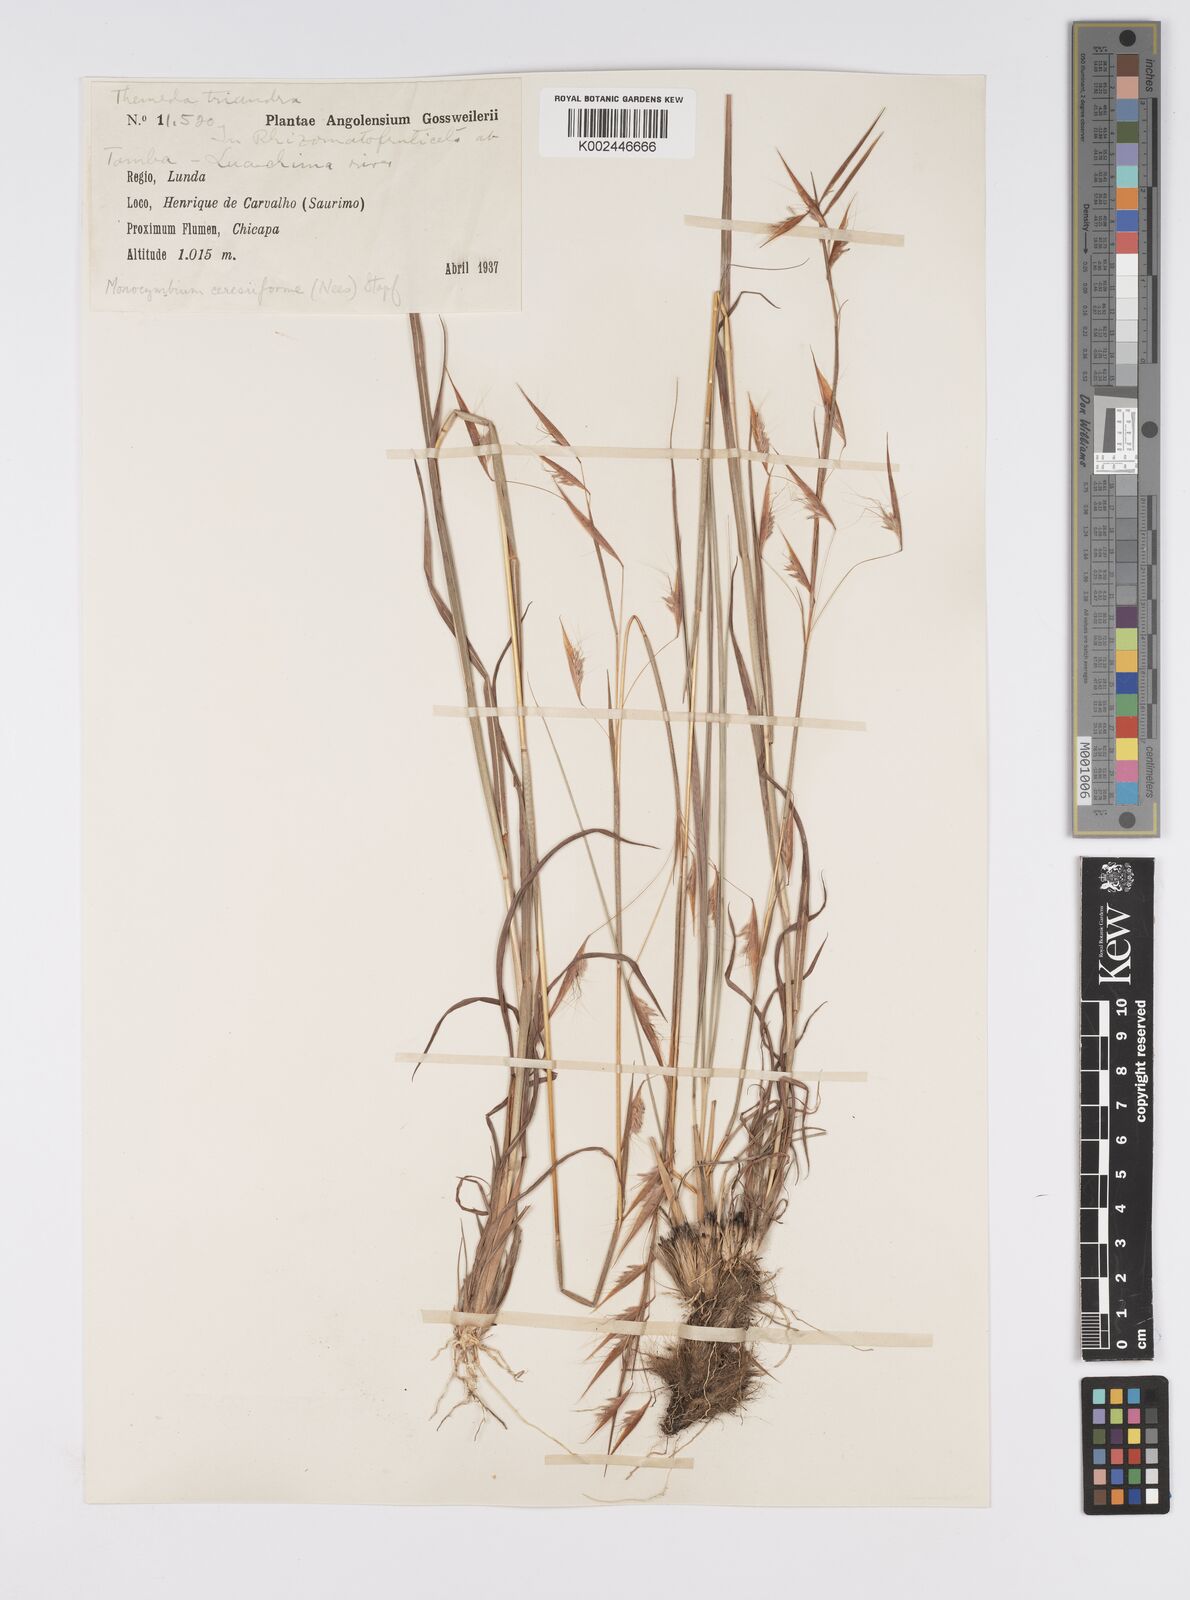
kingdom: Plantae
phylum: Tracheophyta
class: Liliopsida
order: Poales
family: Poaceae
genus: Monocymbium
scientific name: Monocymbium ceresiiforme
